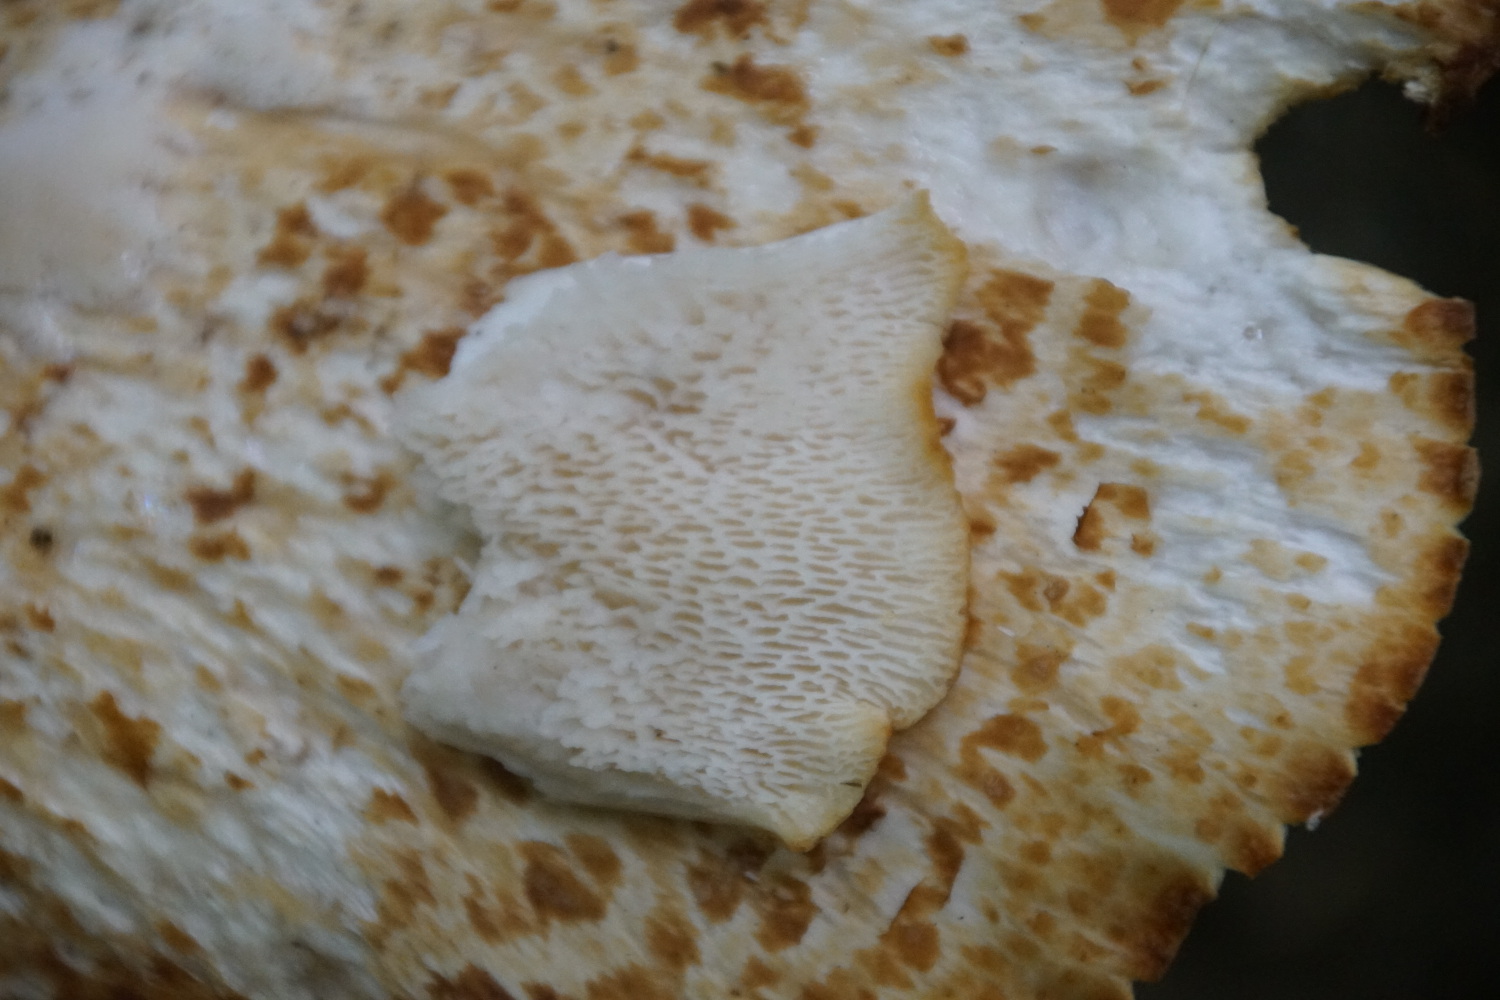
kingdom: Fungi
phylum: Basidiomycota
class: Agaricomycetes
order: Polyporales
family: Polyporaceae
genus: Cerioporus
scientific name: Cerioporus squamosus
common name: skællet stilkporesvamp
